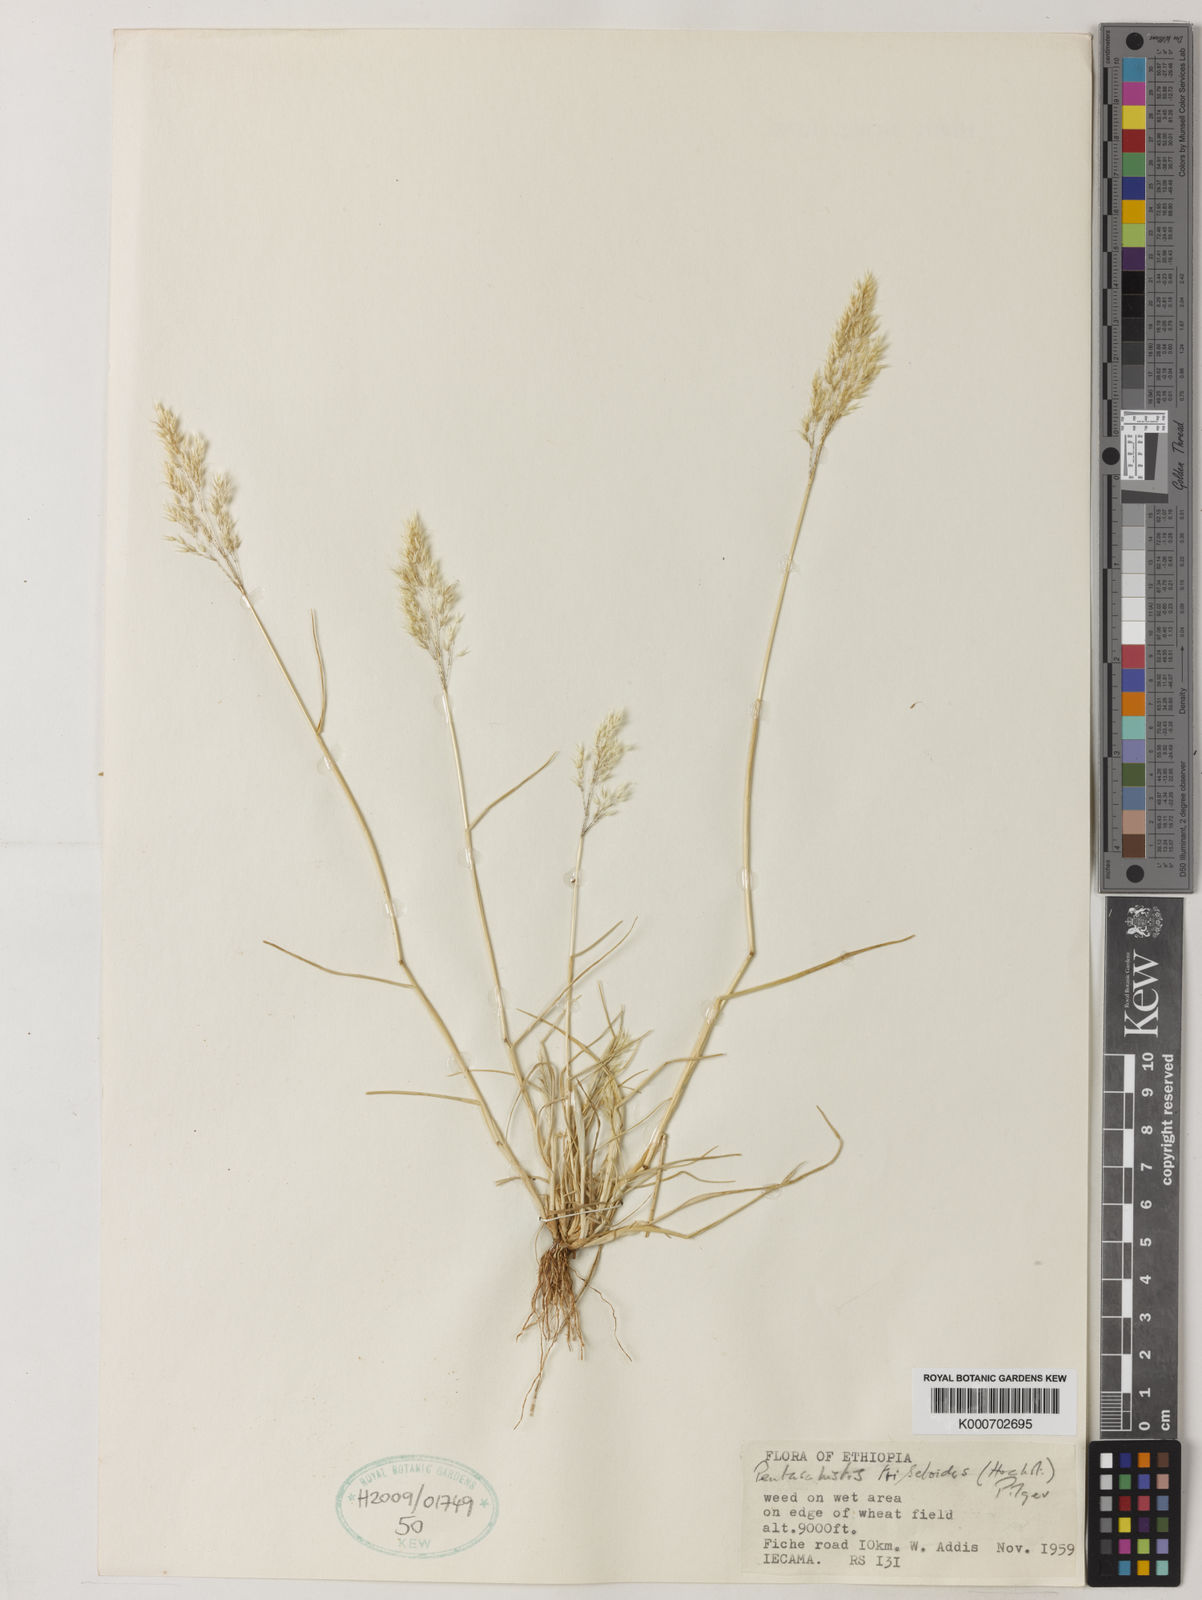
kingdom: Plantae
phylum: Tracheophyta
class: Liliopsida
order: Poales
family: Poaceae
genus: Pentaschistis
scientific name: Pentaschistis
